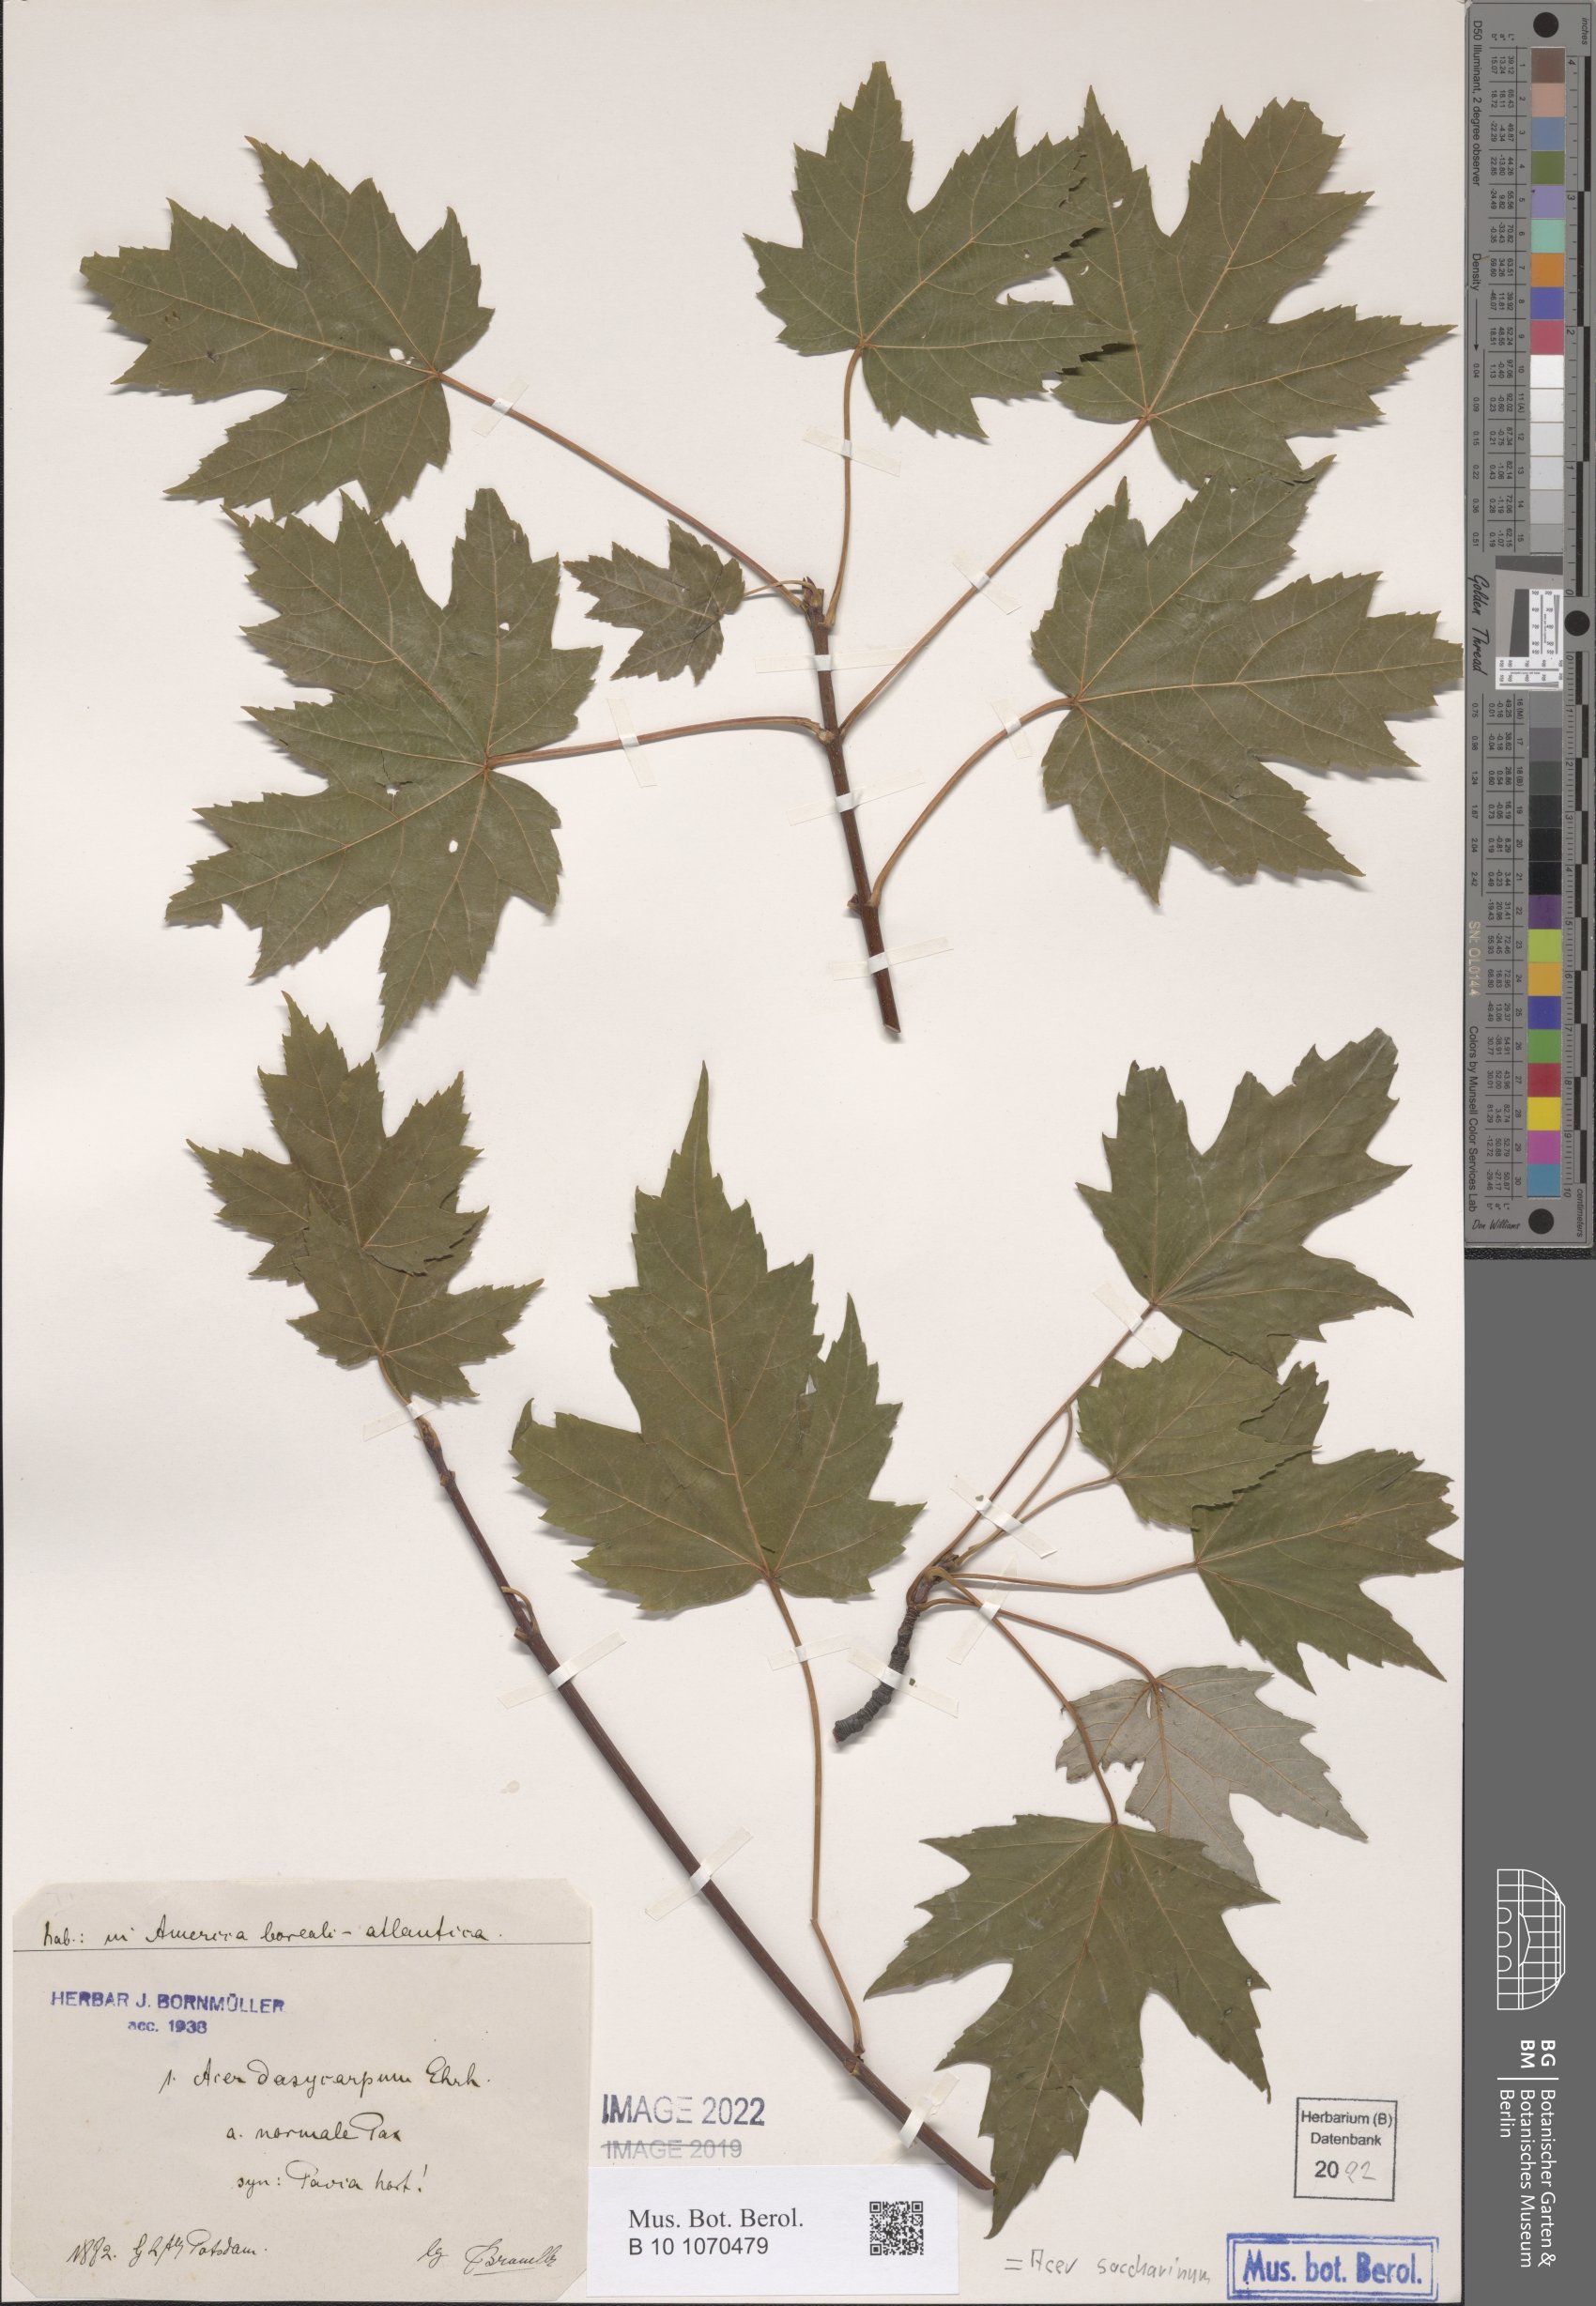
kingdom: Plantae
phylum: Tracheophyta
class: Magnoliopsida
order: Sapindales
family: Sapindaceae
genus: Acer
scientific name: Acer saccharinum
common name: Silver maple
